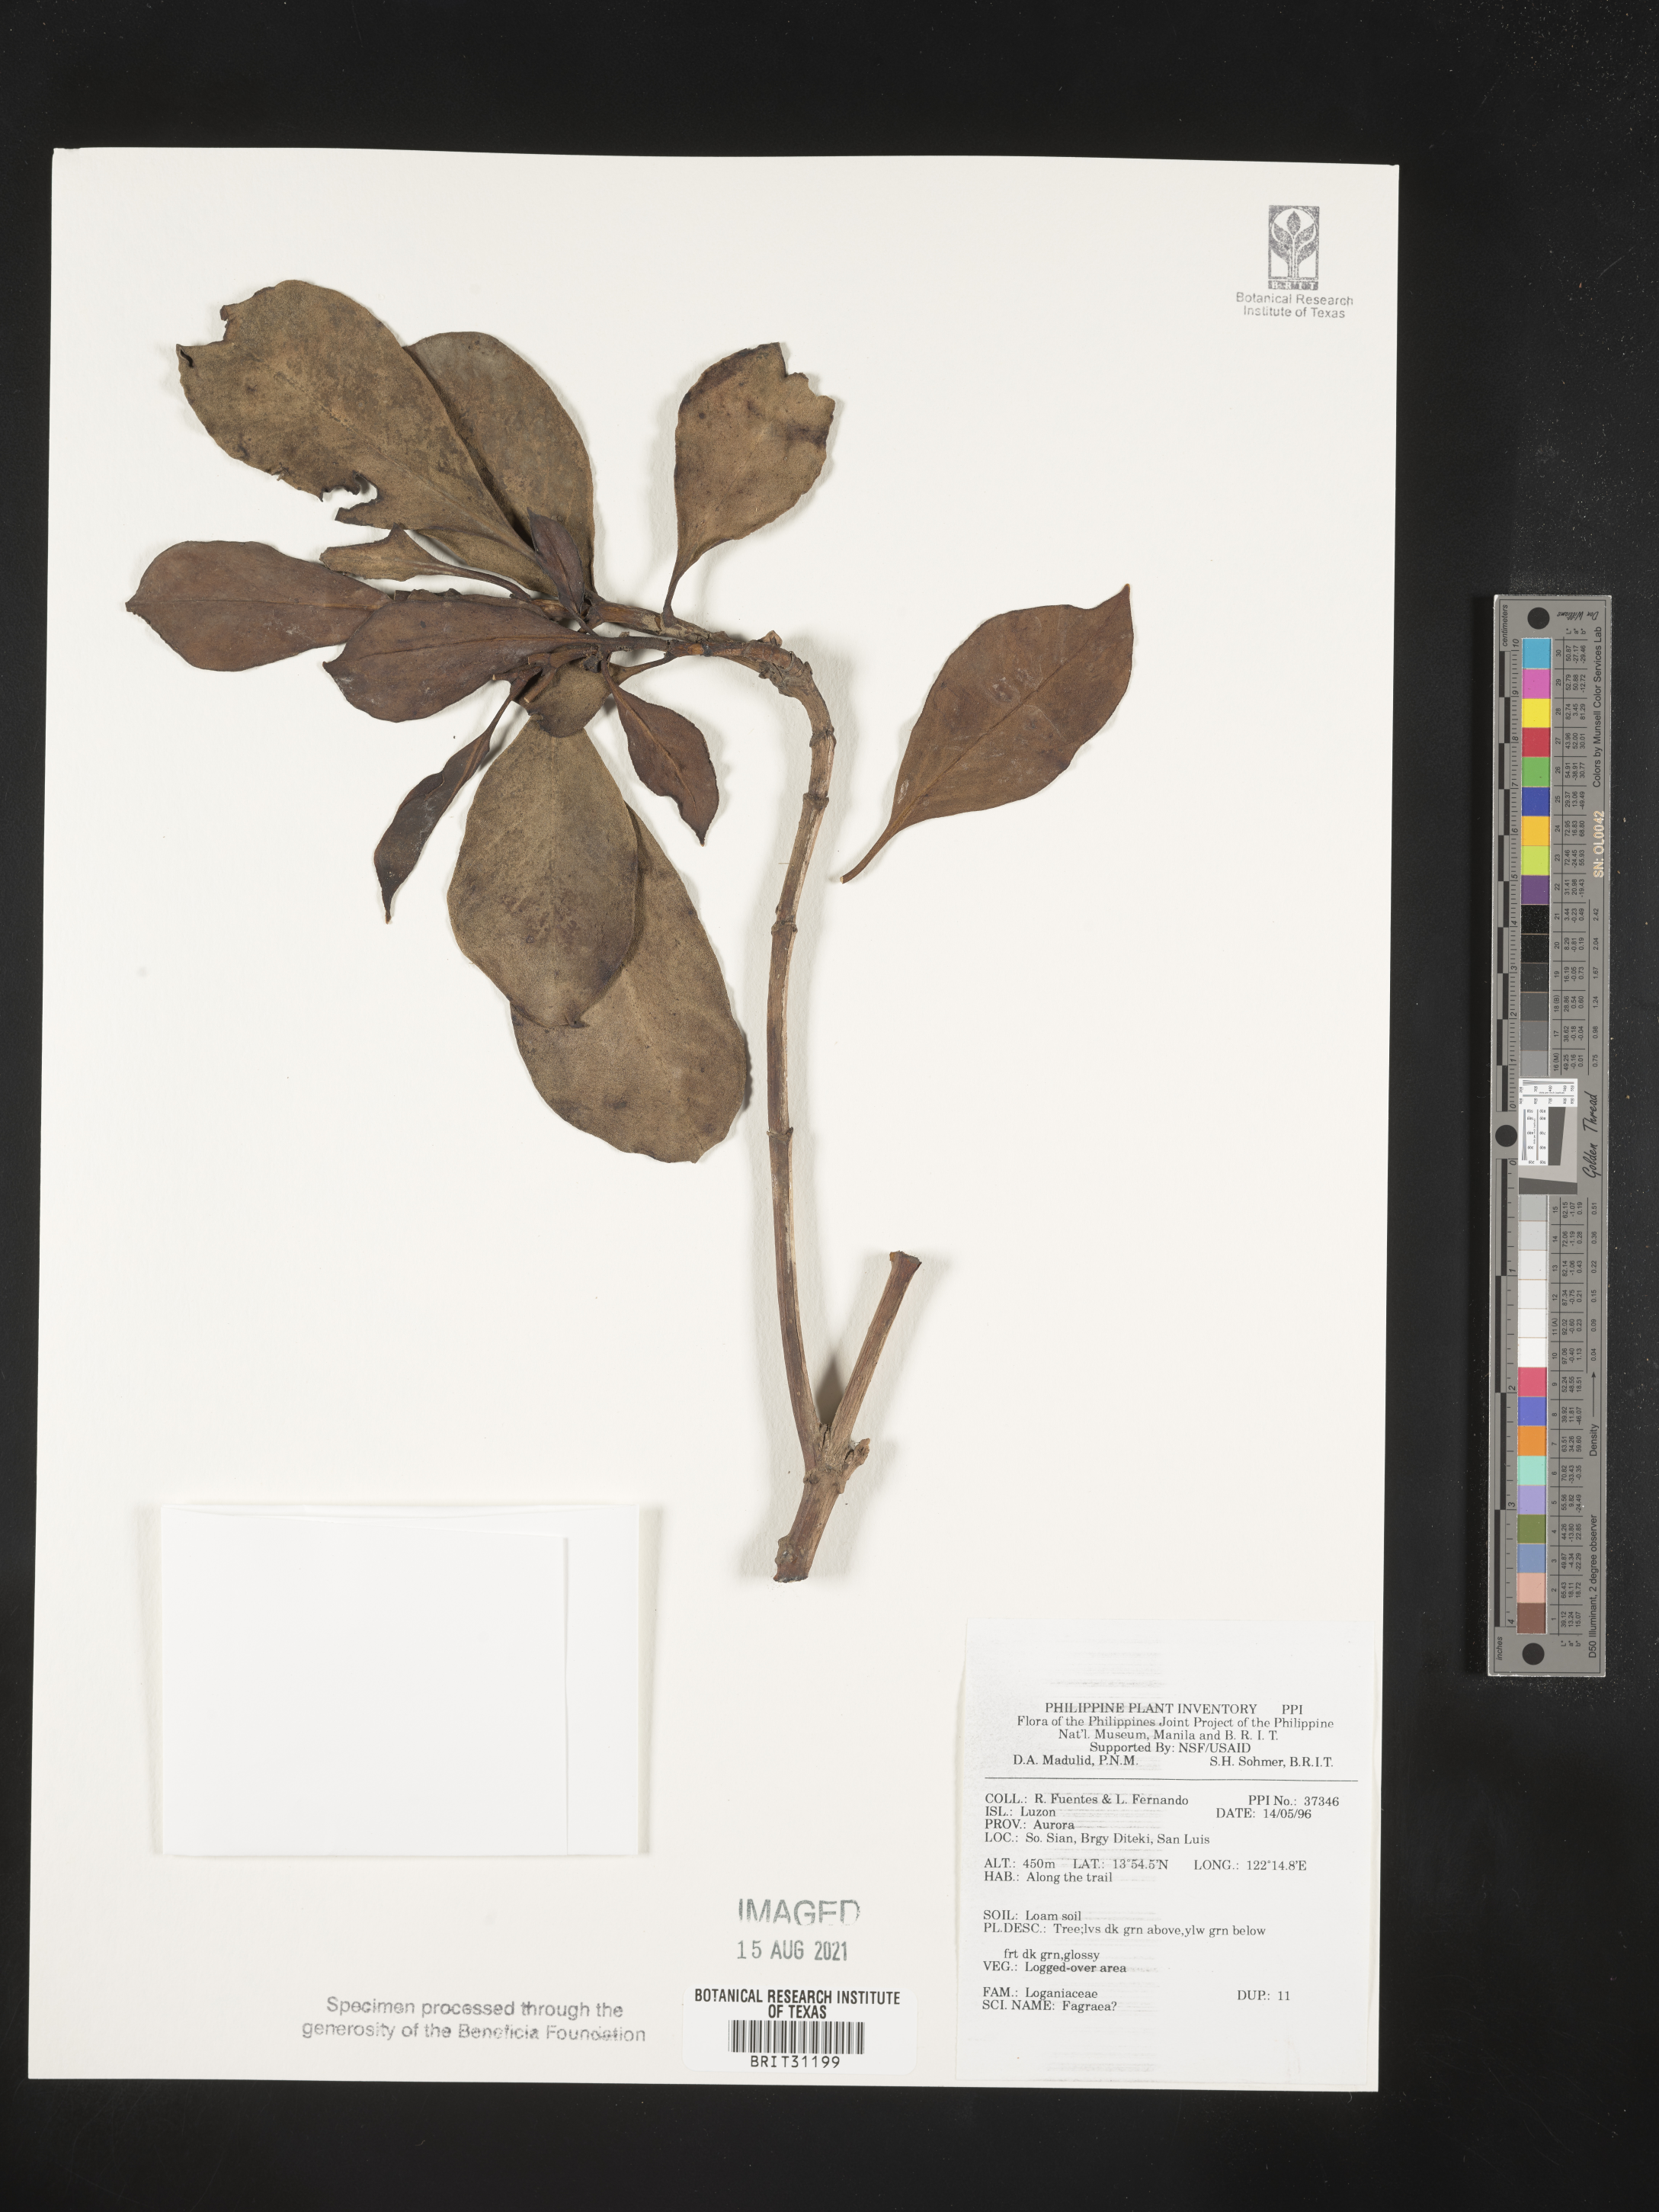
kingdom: Plantae
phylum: Tracheophyta
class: Magnoliopsida
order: Gentianales
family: Gentianaceae
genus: Fagraea
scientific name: Fagraea
